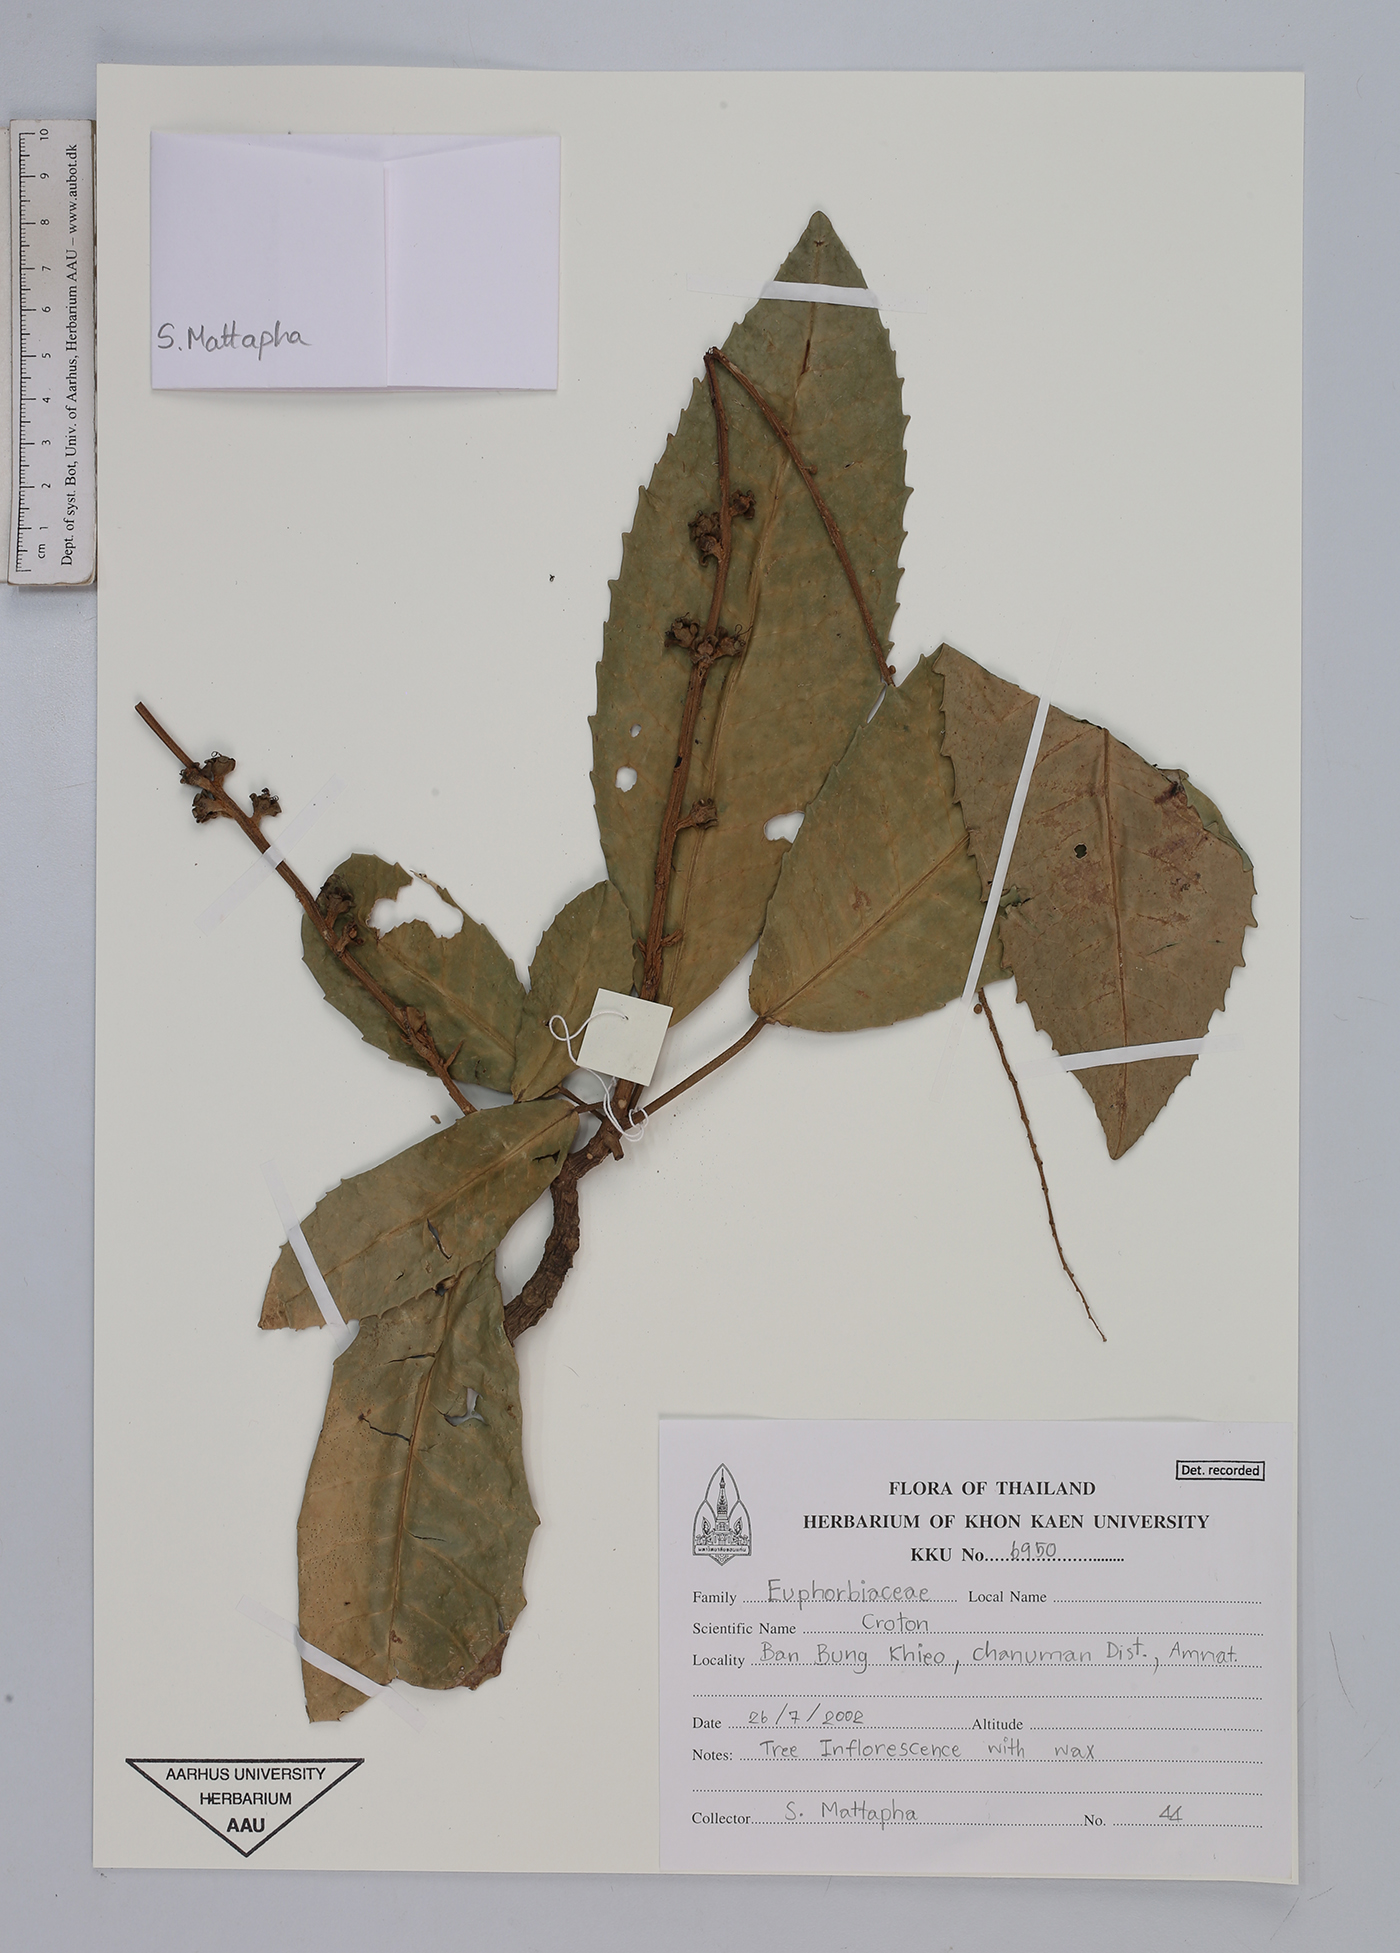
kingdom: Plantae
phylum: Tracheophyta
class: Magnoliopsida
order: Malpighiales
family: Euphorbiaceae
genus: Croton
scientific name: Croton
